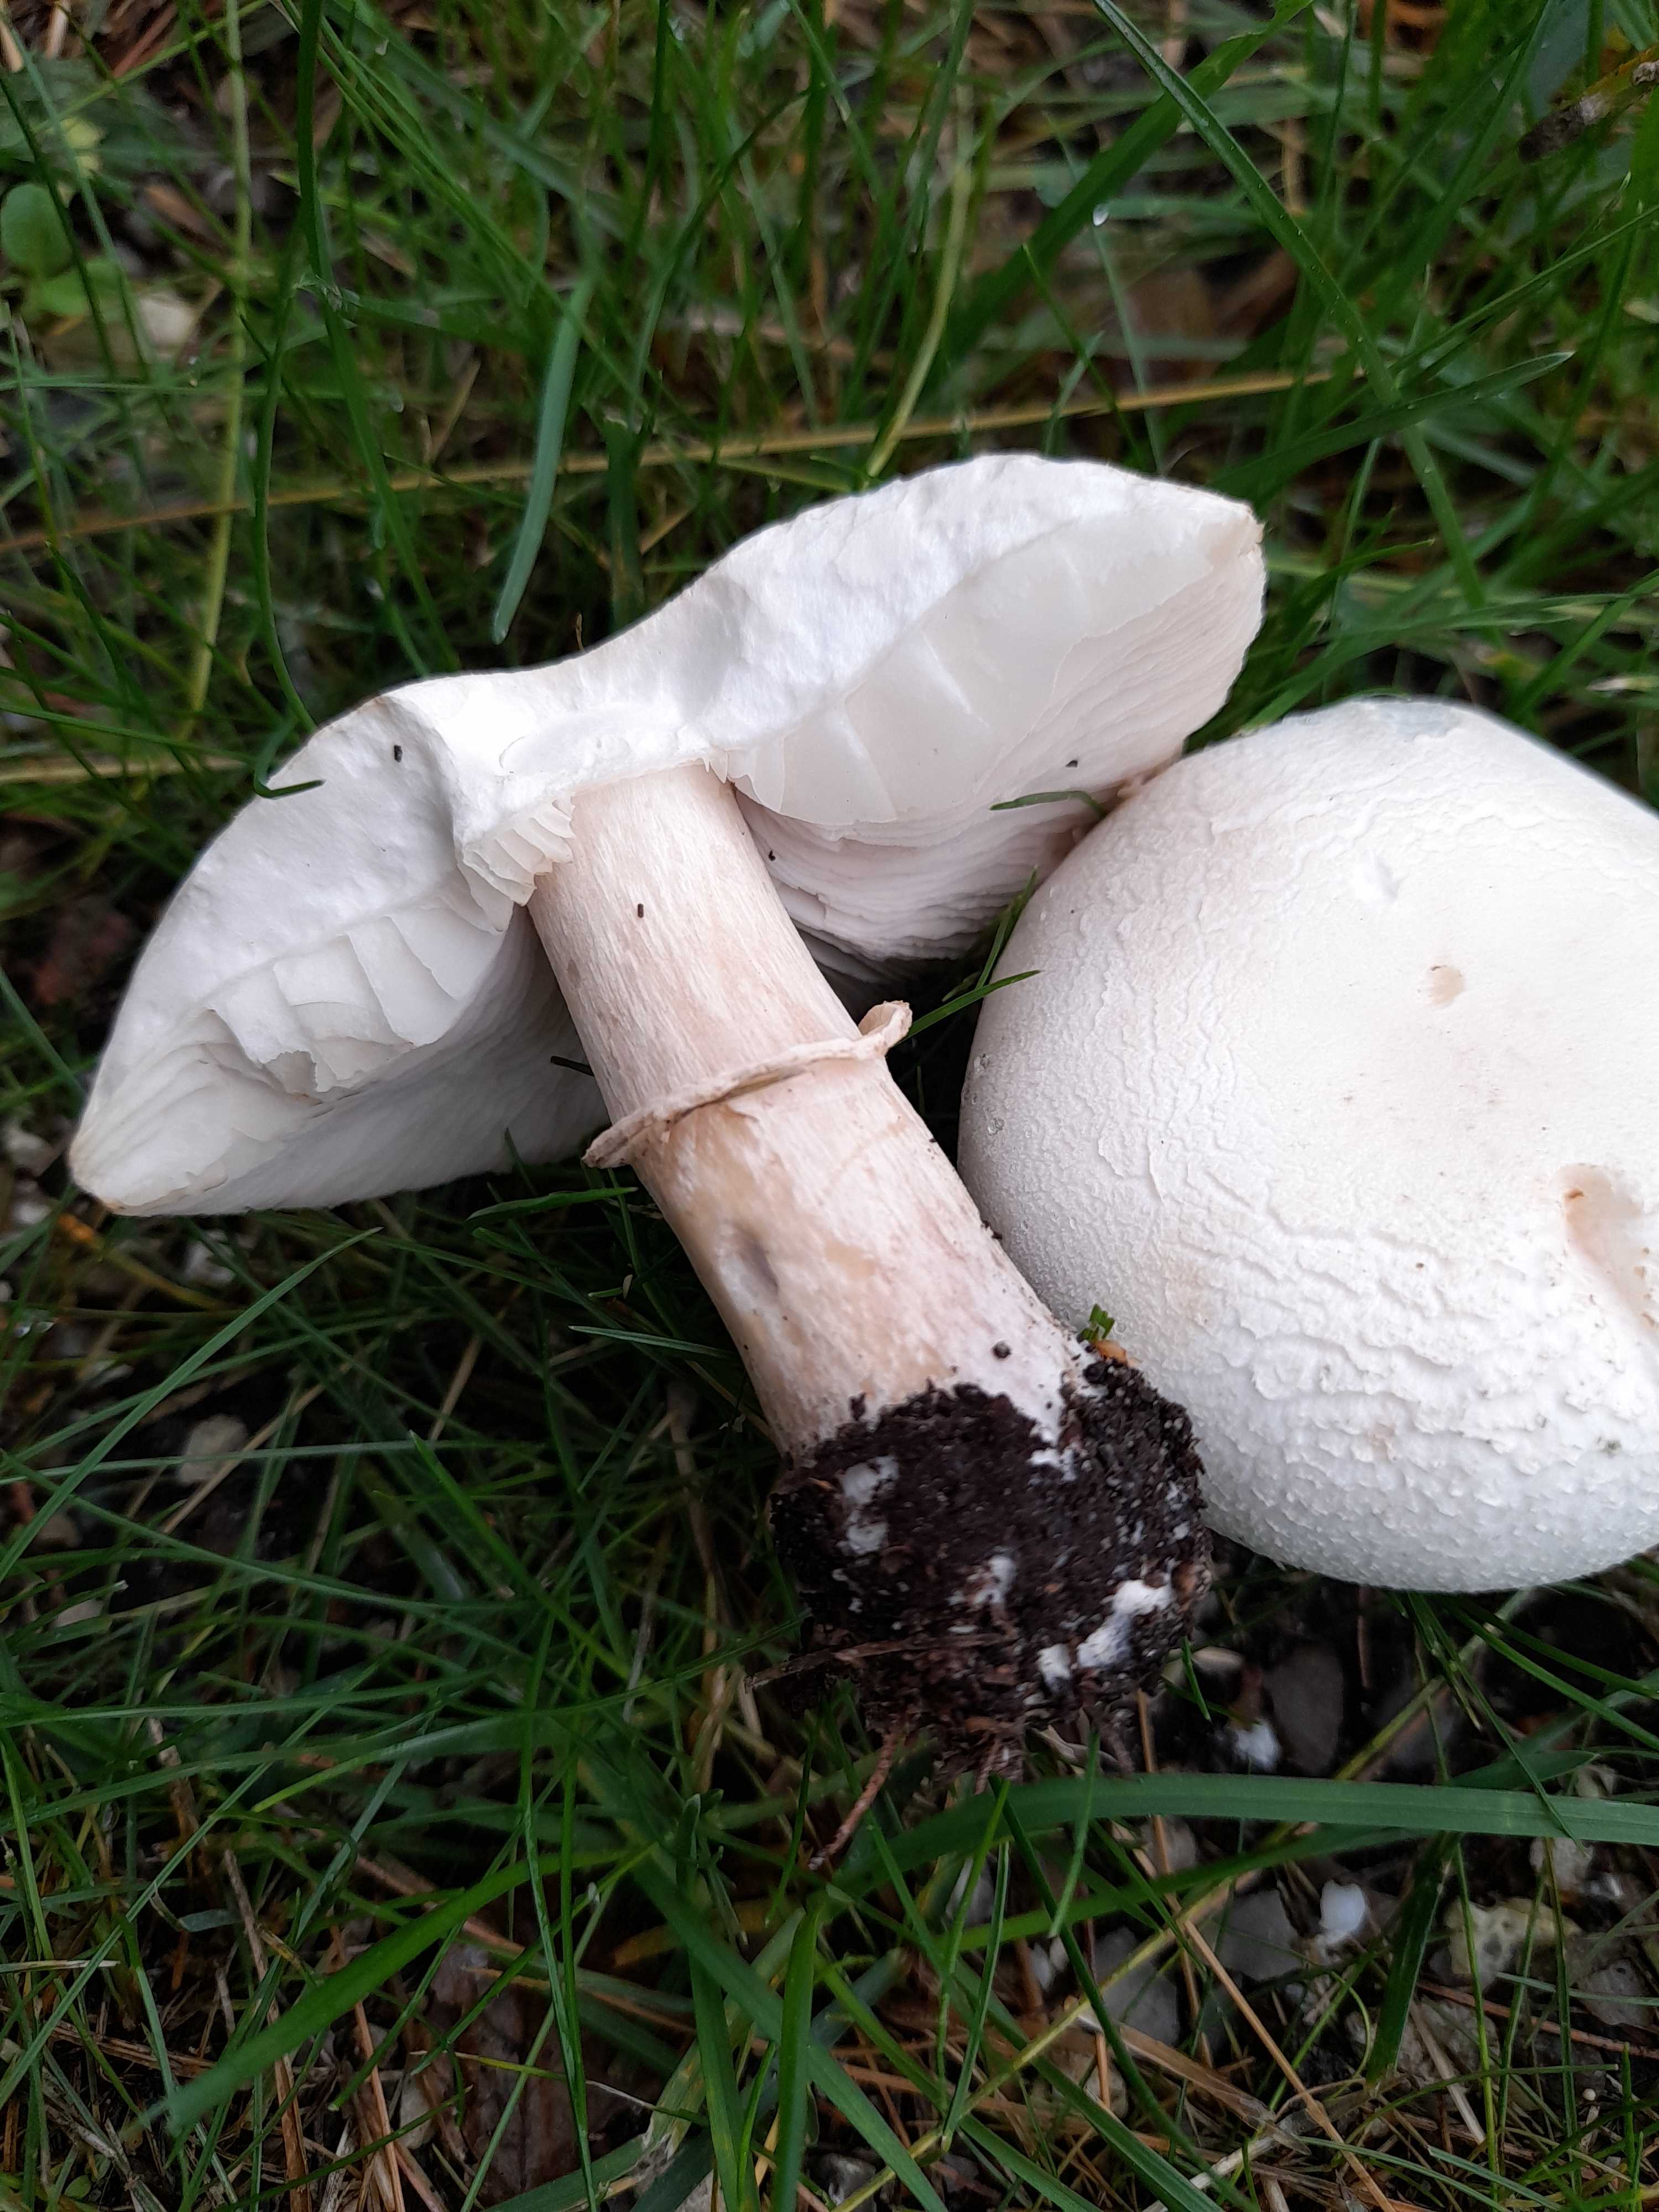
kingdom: Fungi
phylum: Basidiomycota
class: Agaricomycetes
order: Agaricales
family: Agaricaceae
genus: Leucoagaricus
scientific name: Leucoagaricus leucothites
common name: rosabladet silkehat
